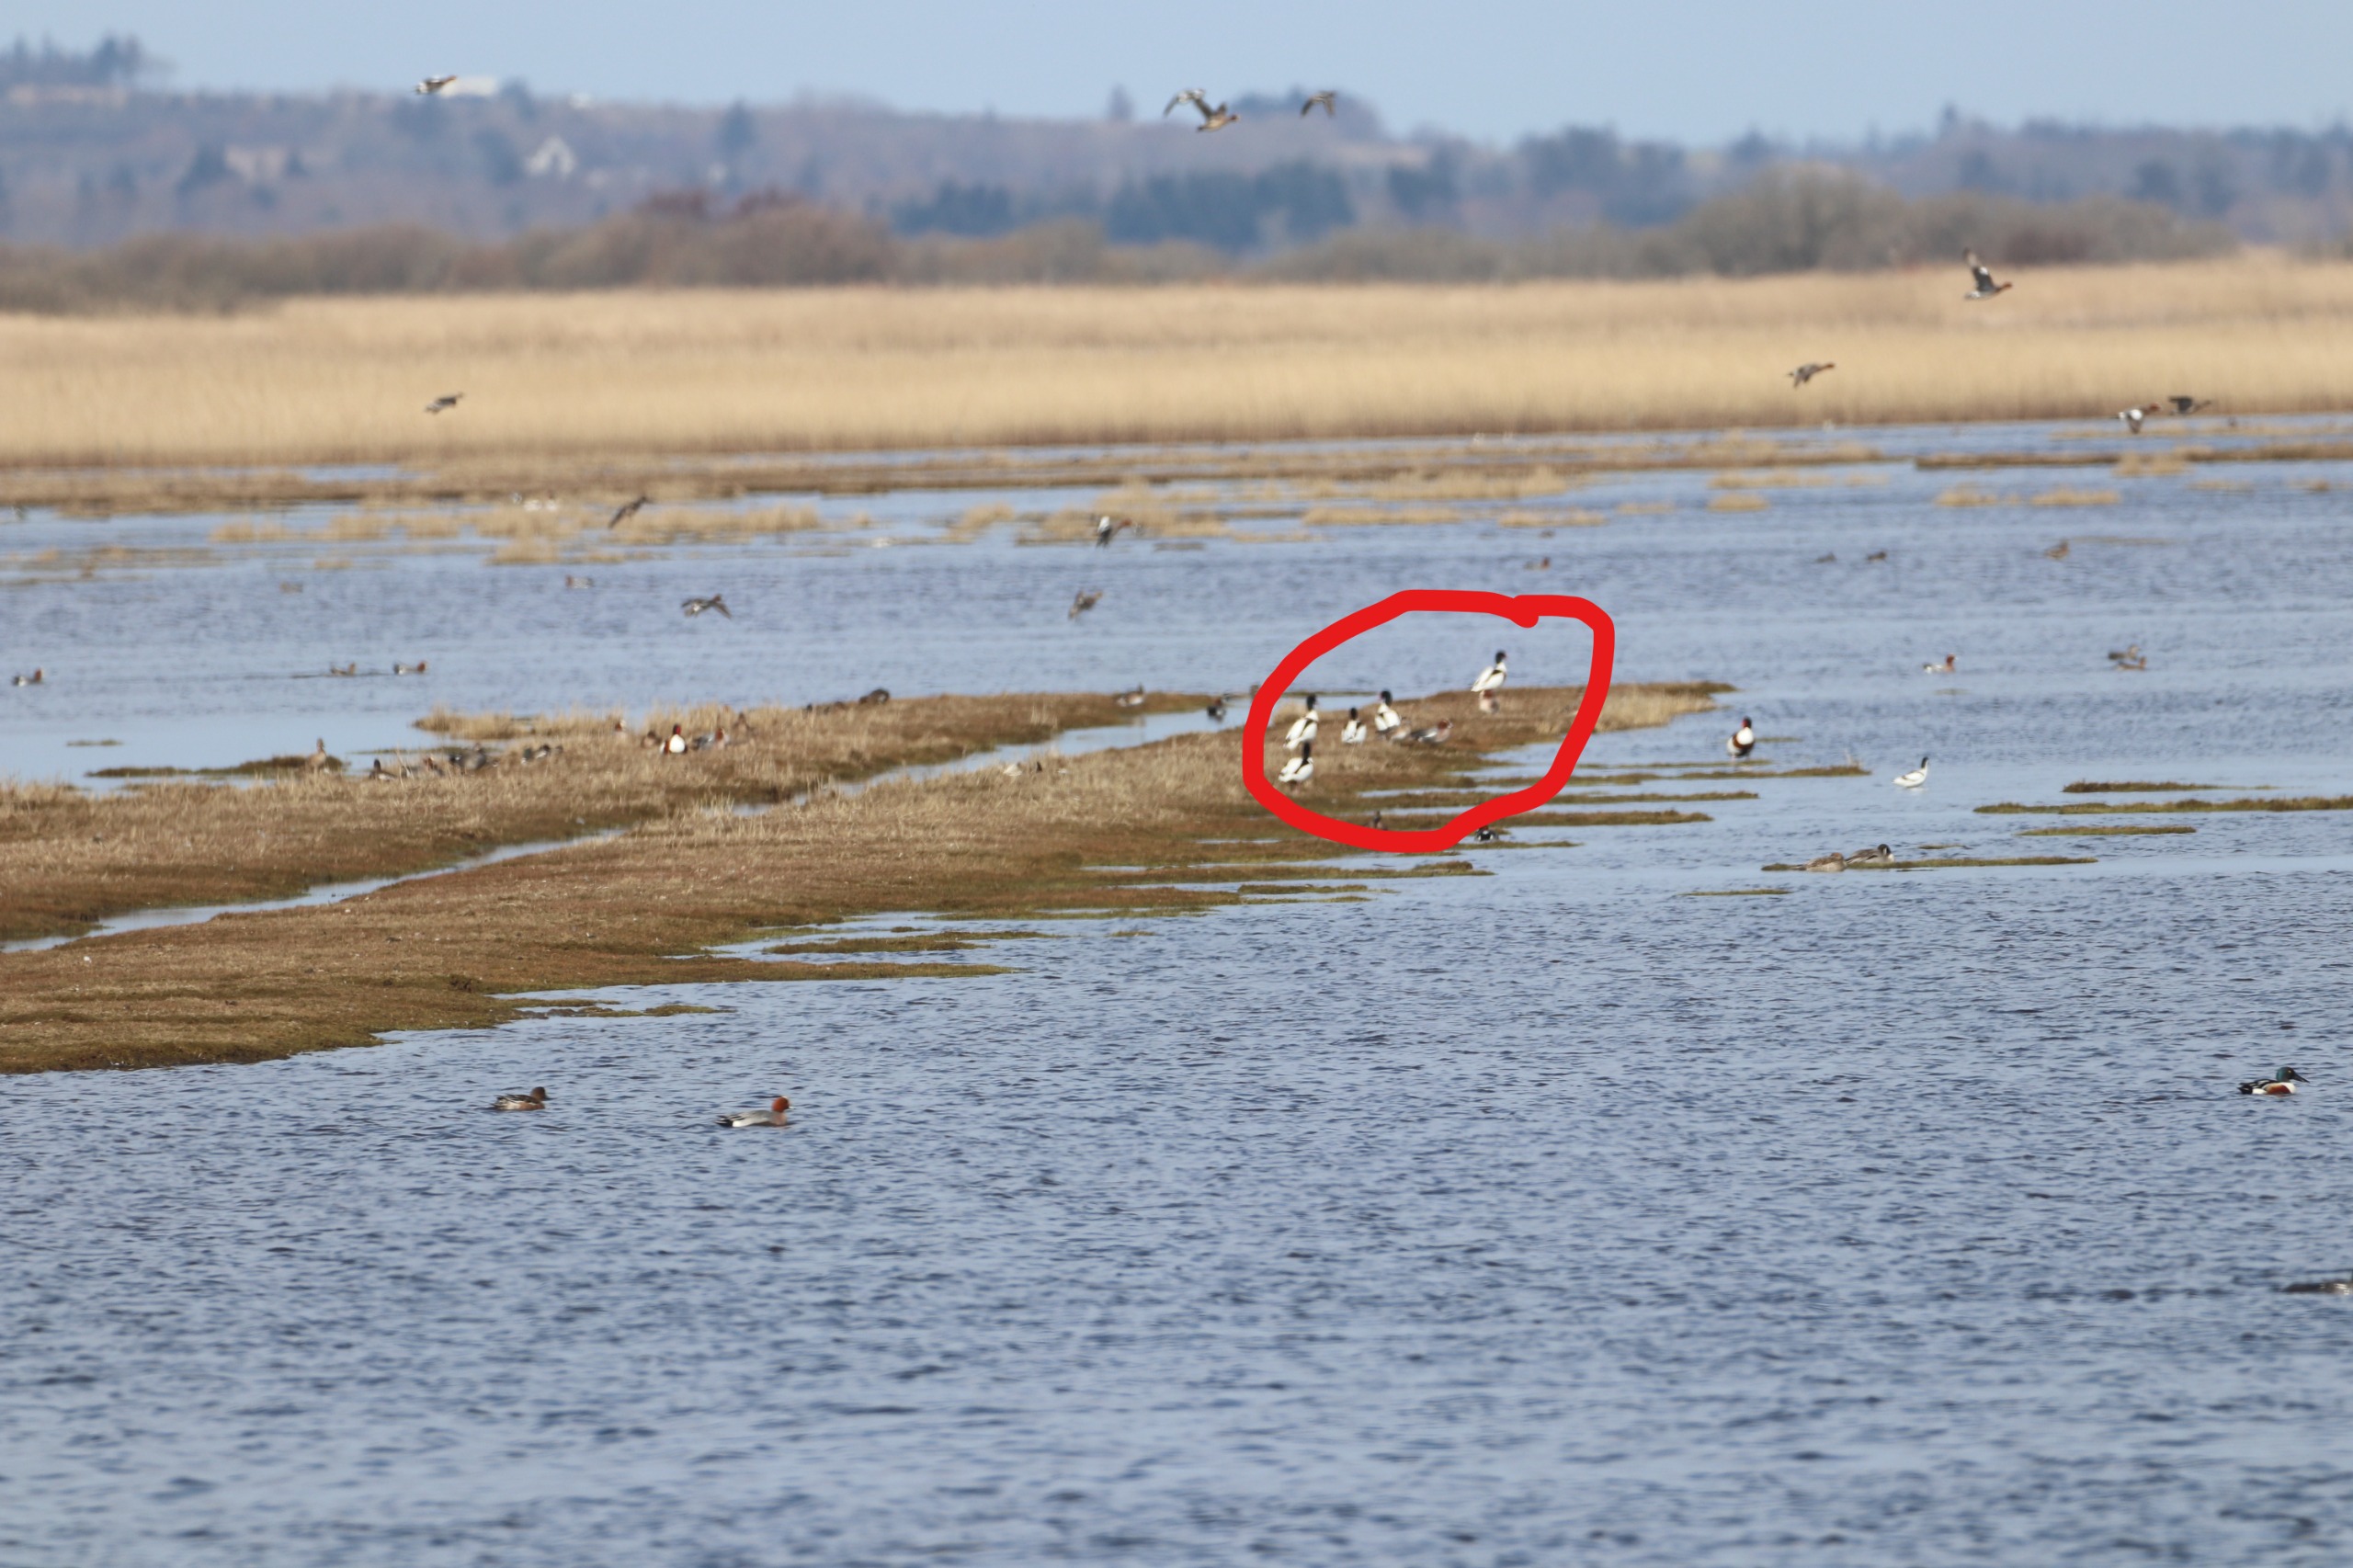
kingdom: Animalia
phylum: Chordata
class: Aves
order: Anseriformes
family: Anatidae
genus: Tadorna
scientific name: Tadorna tadorna
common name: Gravand
